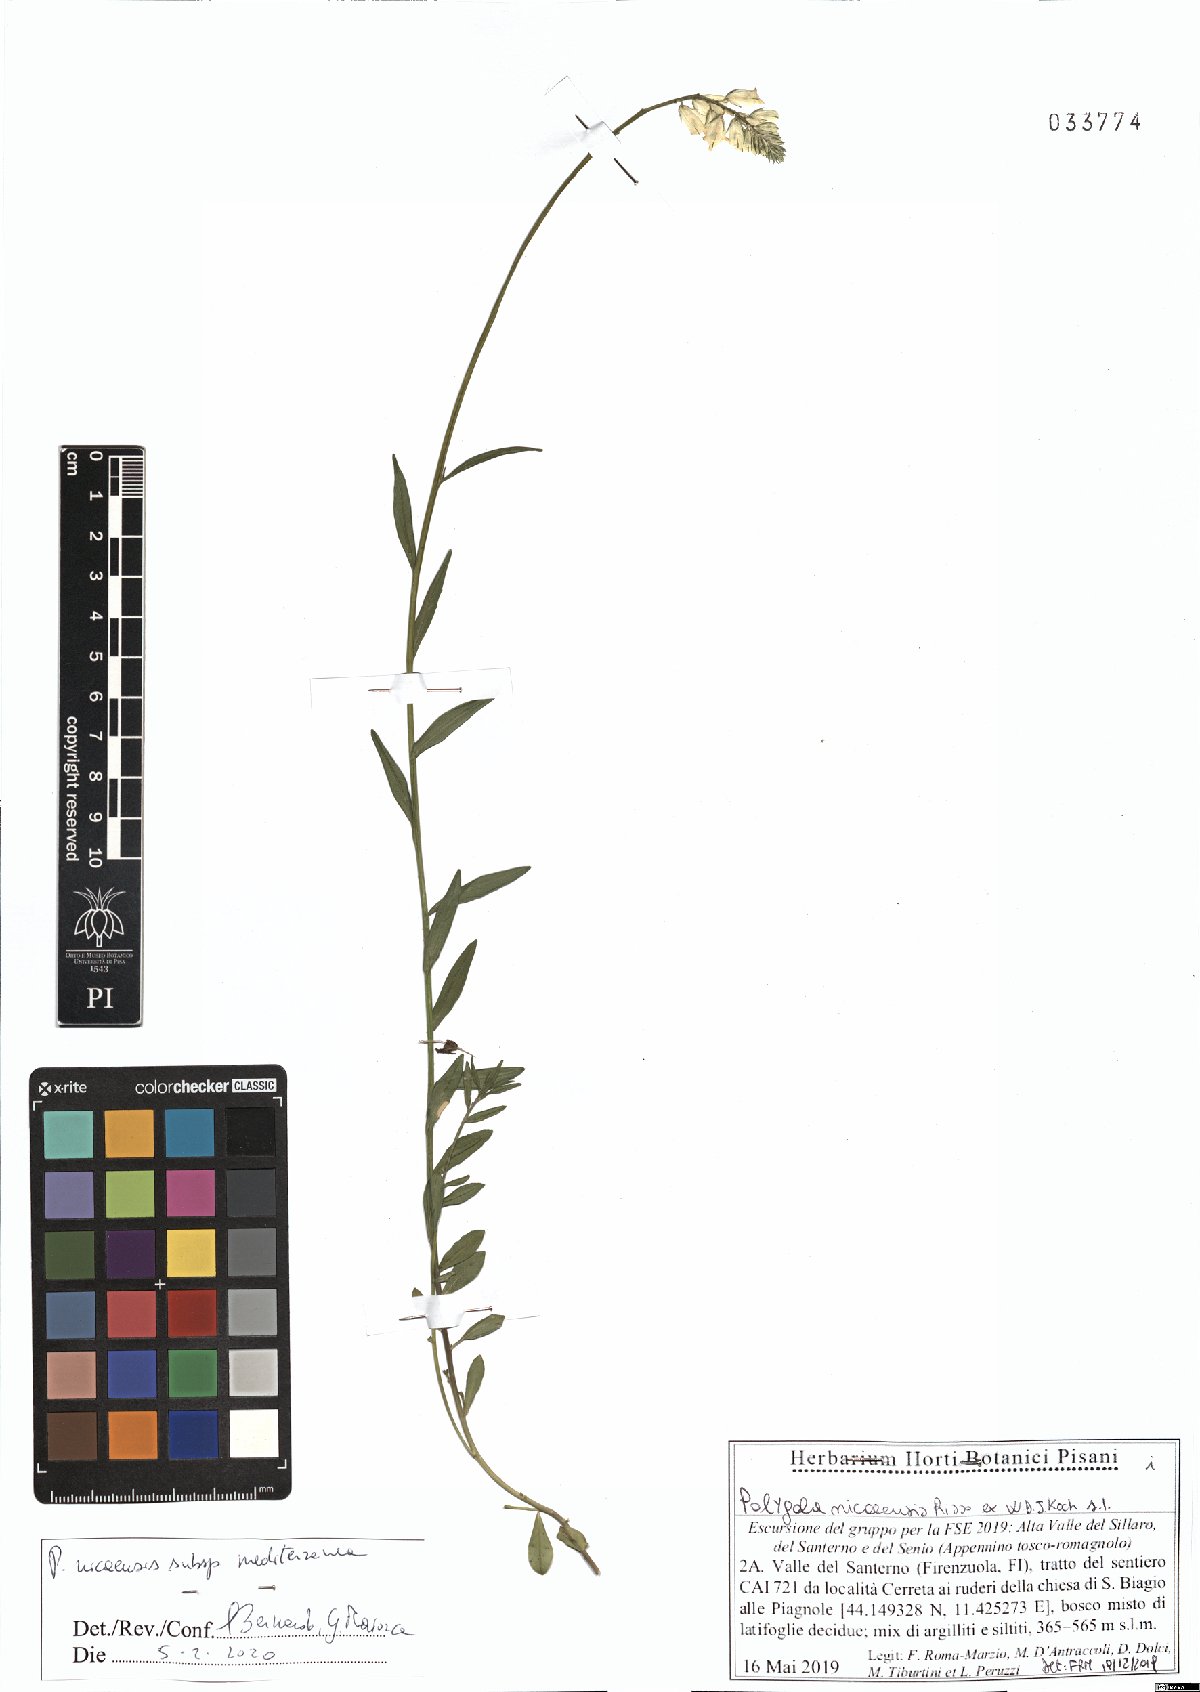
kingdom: Plantae
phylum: Tracheophyta
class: Magnoliopsida
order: Fabales
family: Polygalaceae
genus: Polygala
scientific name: Polygala nicaeensis
